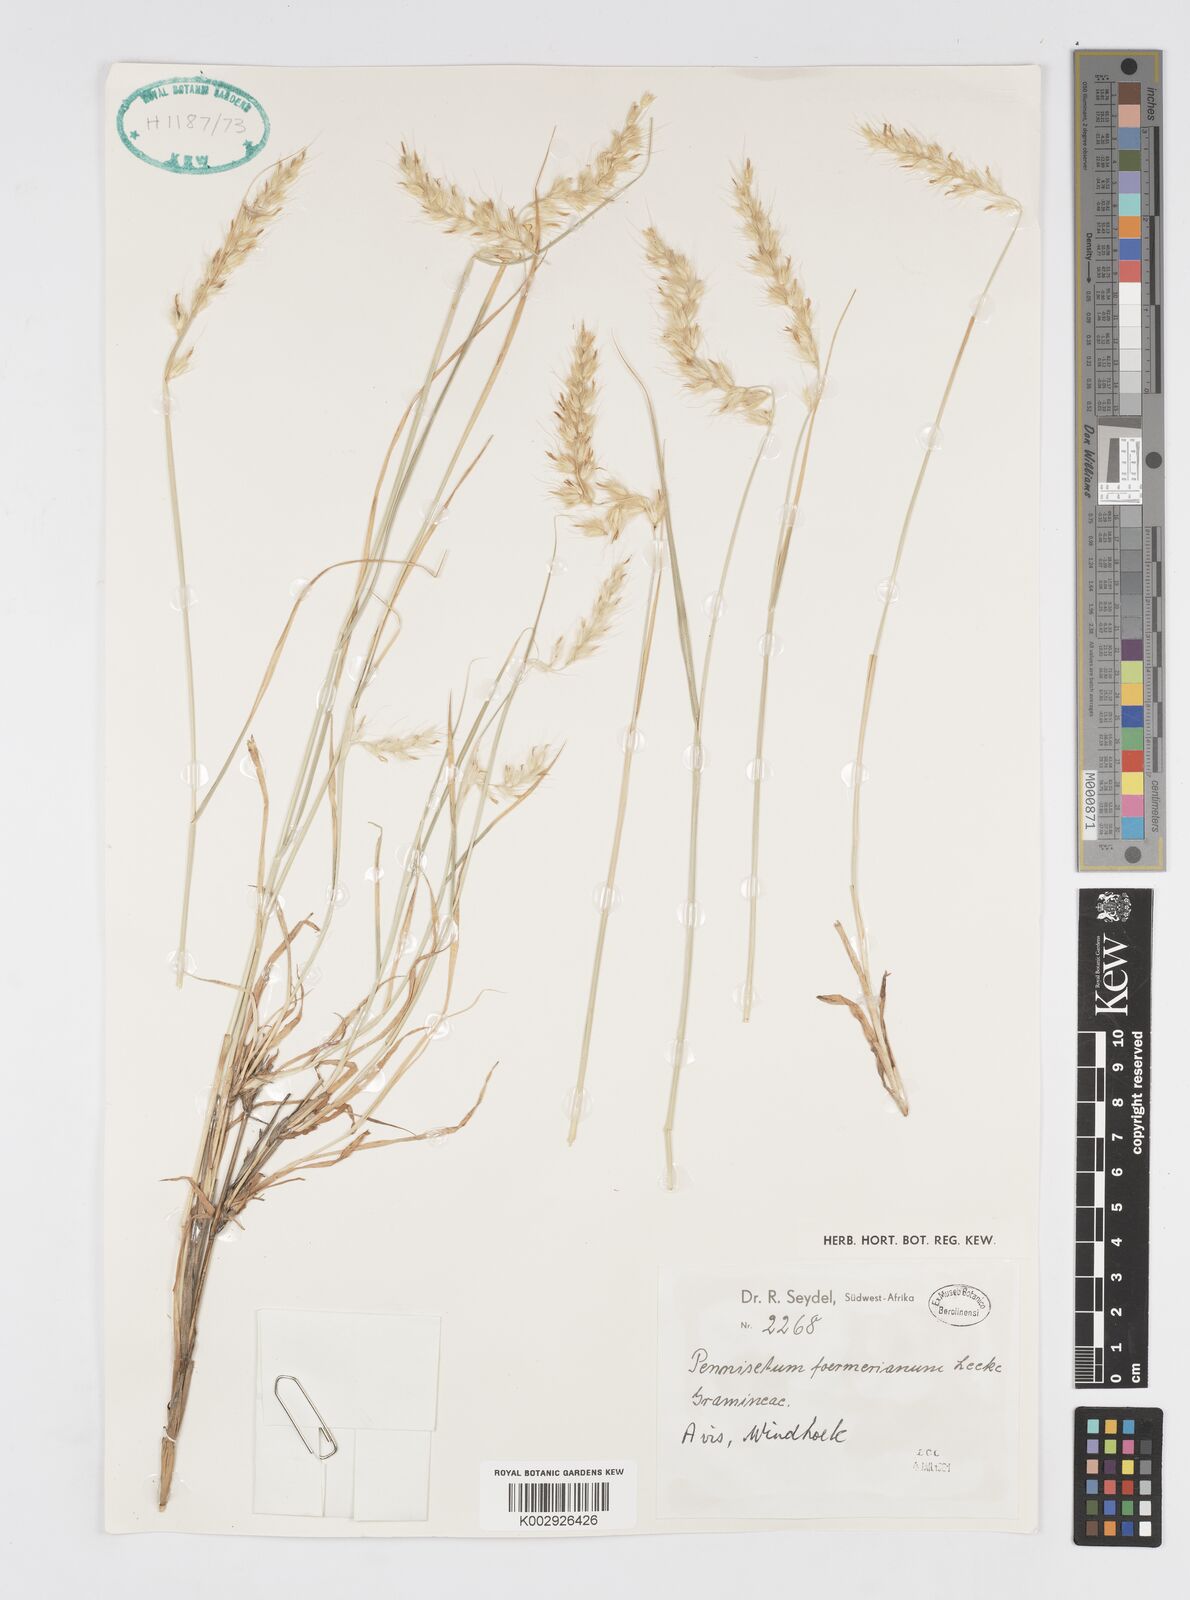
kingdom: Plantae
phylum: Tracheophyta
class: Liliopsida
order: Poales
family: Poaceae
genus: Cenchrus
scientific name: Cenchrus foermerianus
